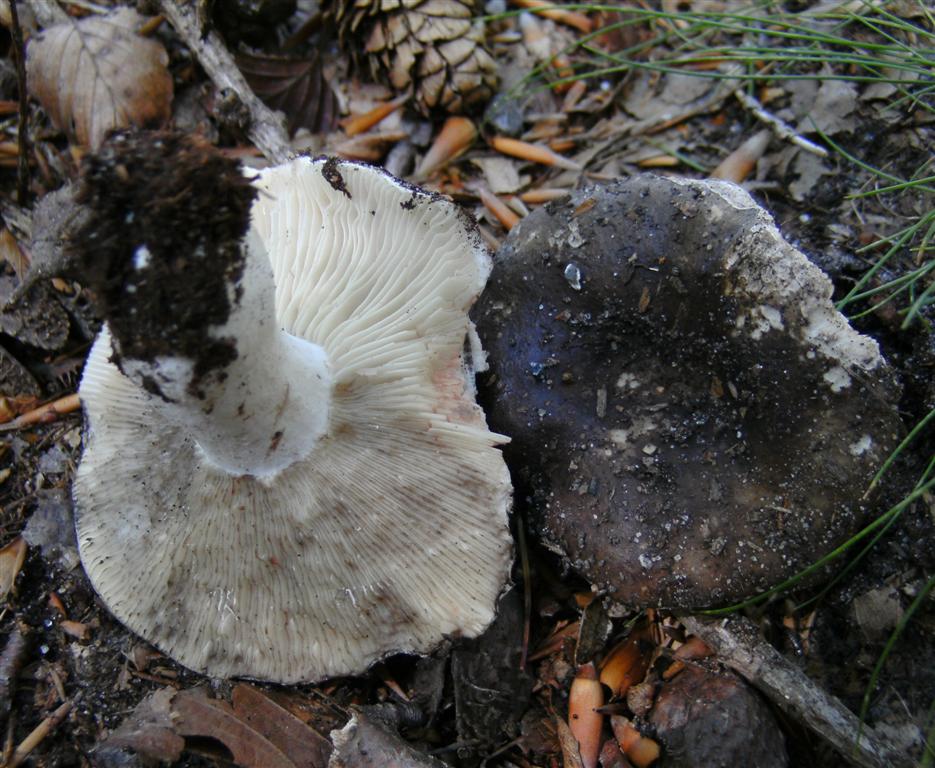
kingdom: Fungi
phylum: Basidiomycota
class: Agaricomycetes
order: Russulales
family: Russulaceae
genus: Russula
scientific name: Russula
